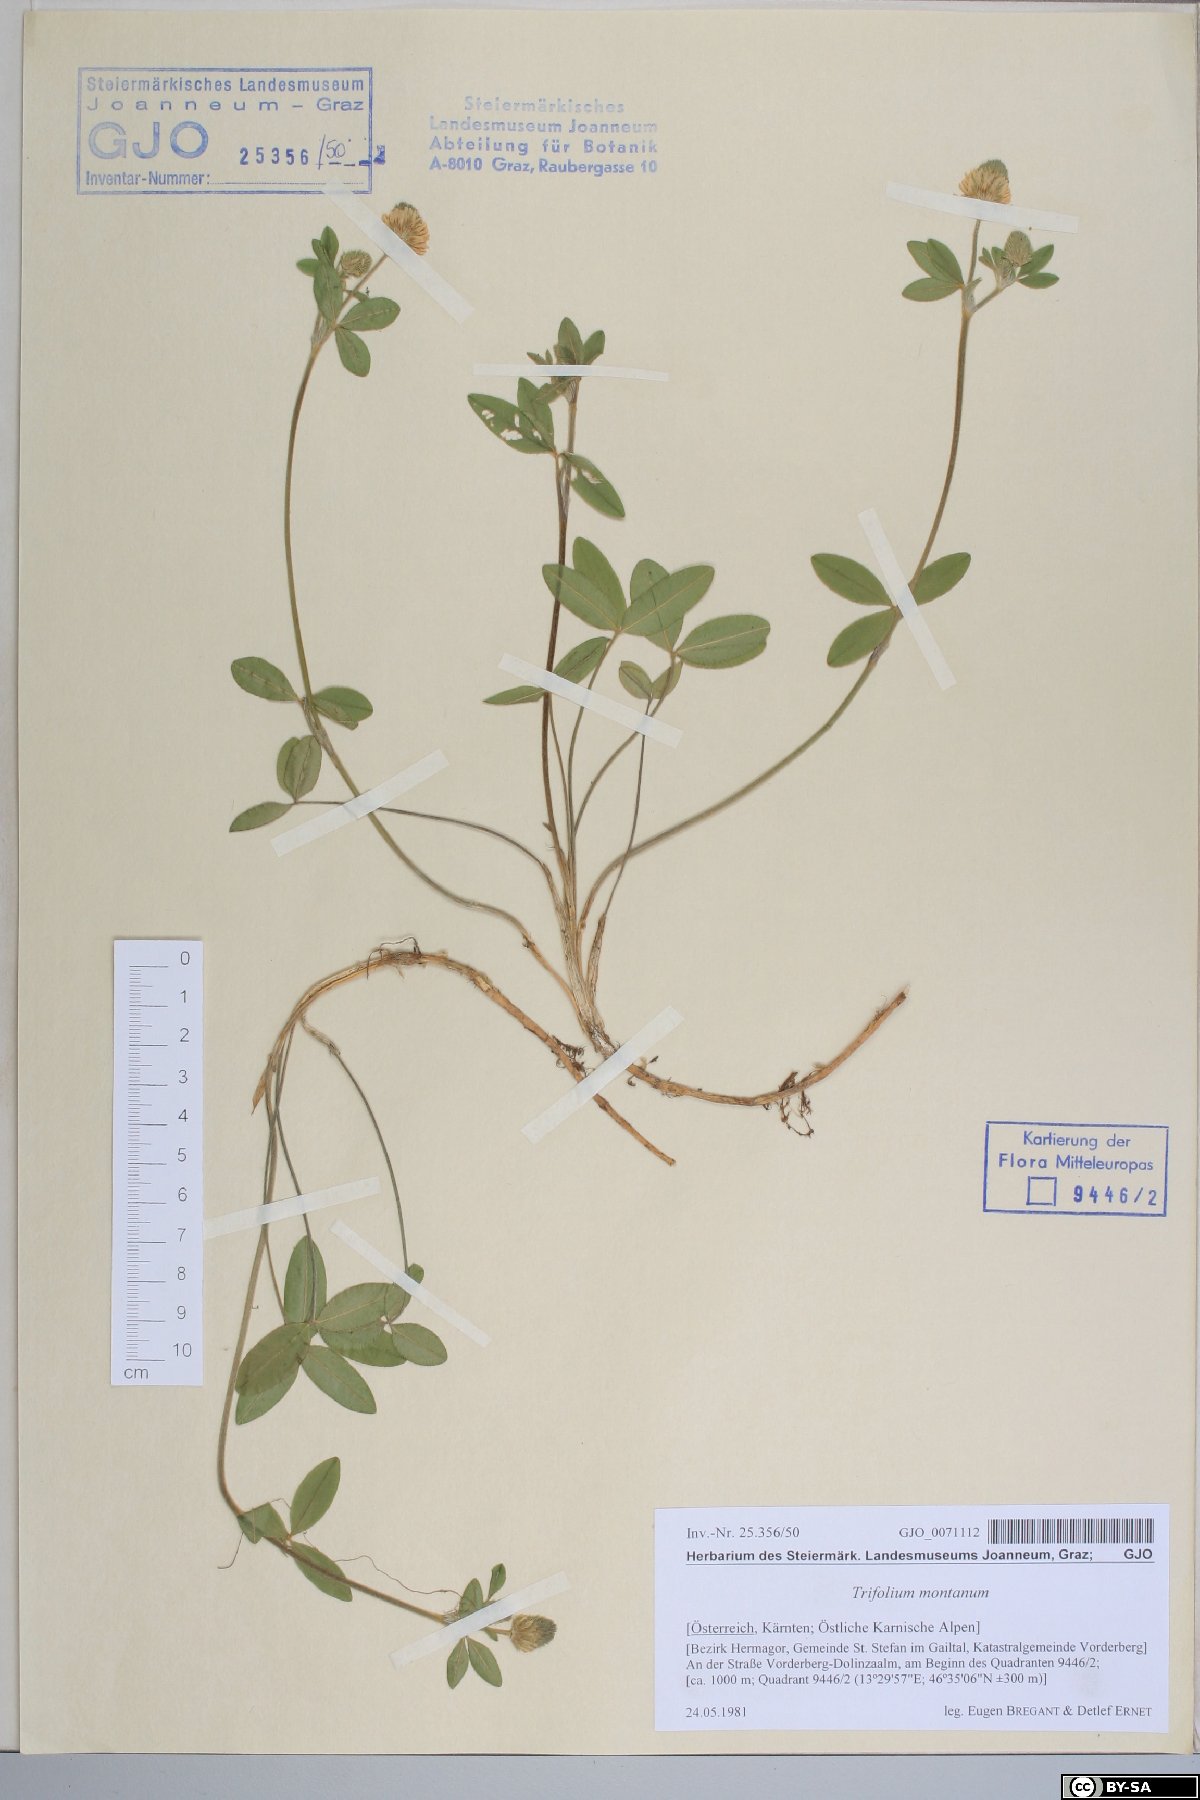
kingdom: Plantae
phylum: Tracheophyta
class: Magnoliopsida
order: Fabales
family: Fabaceae
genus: Trifolium
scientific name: Trifolium montanum
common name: Mountain clover
